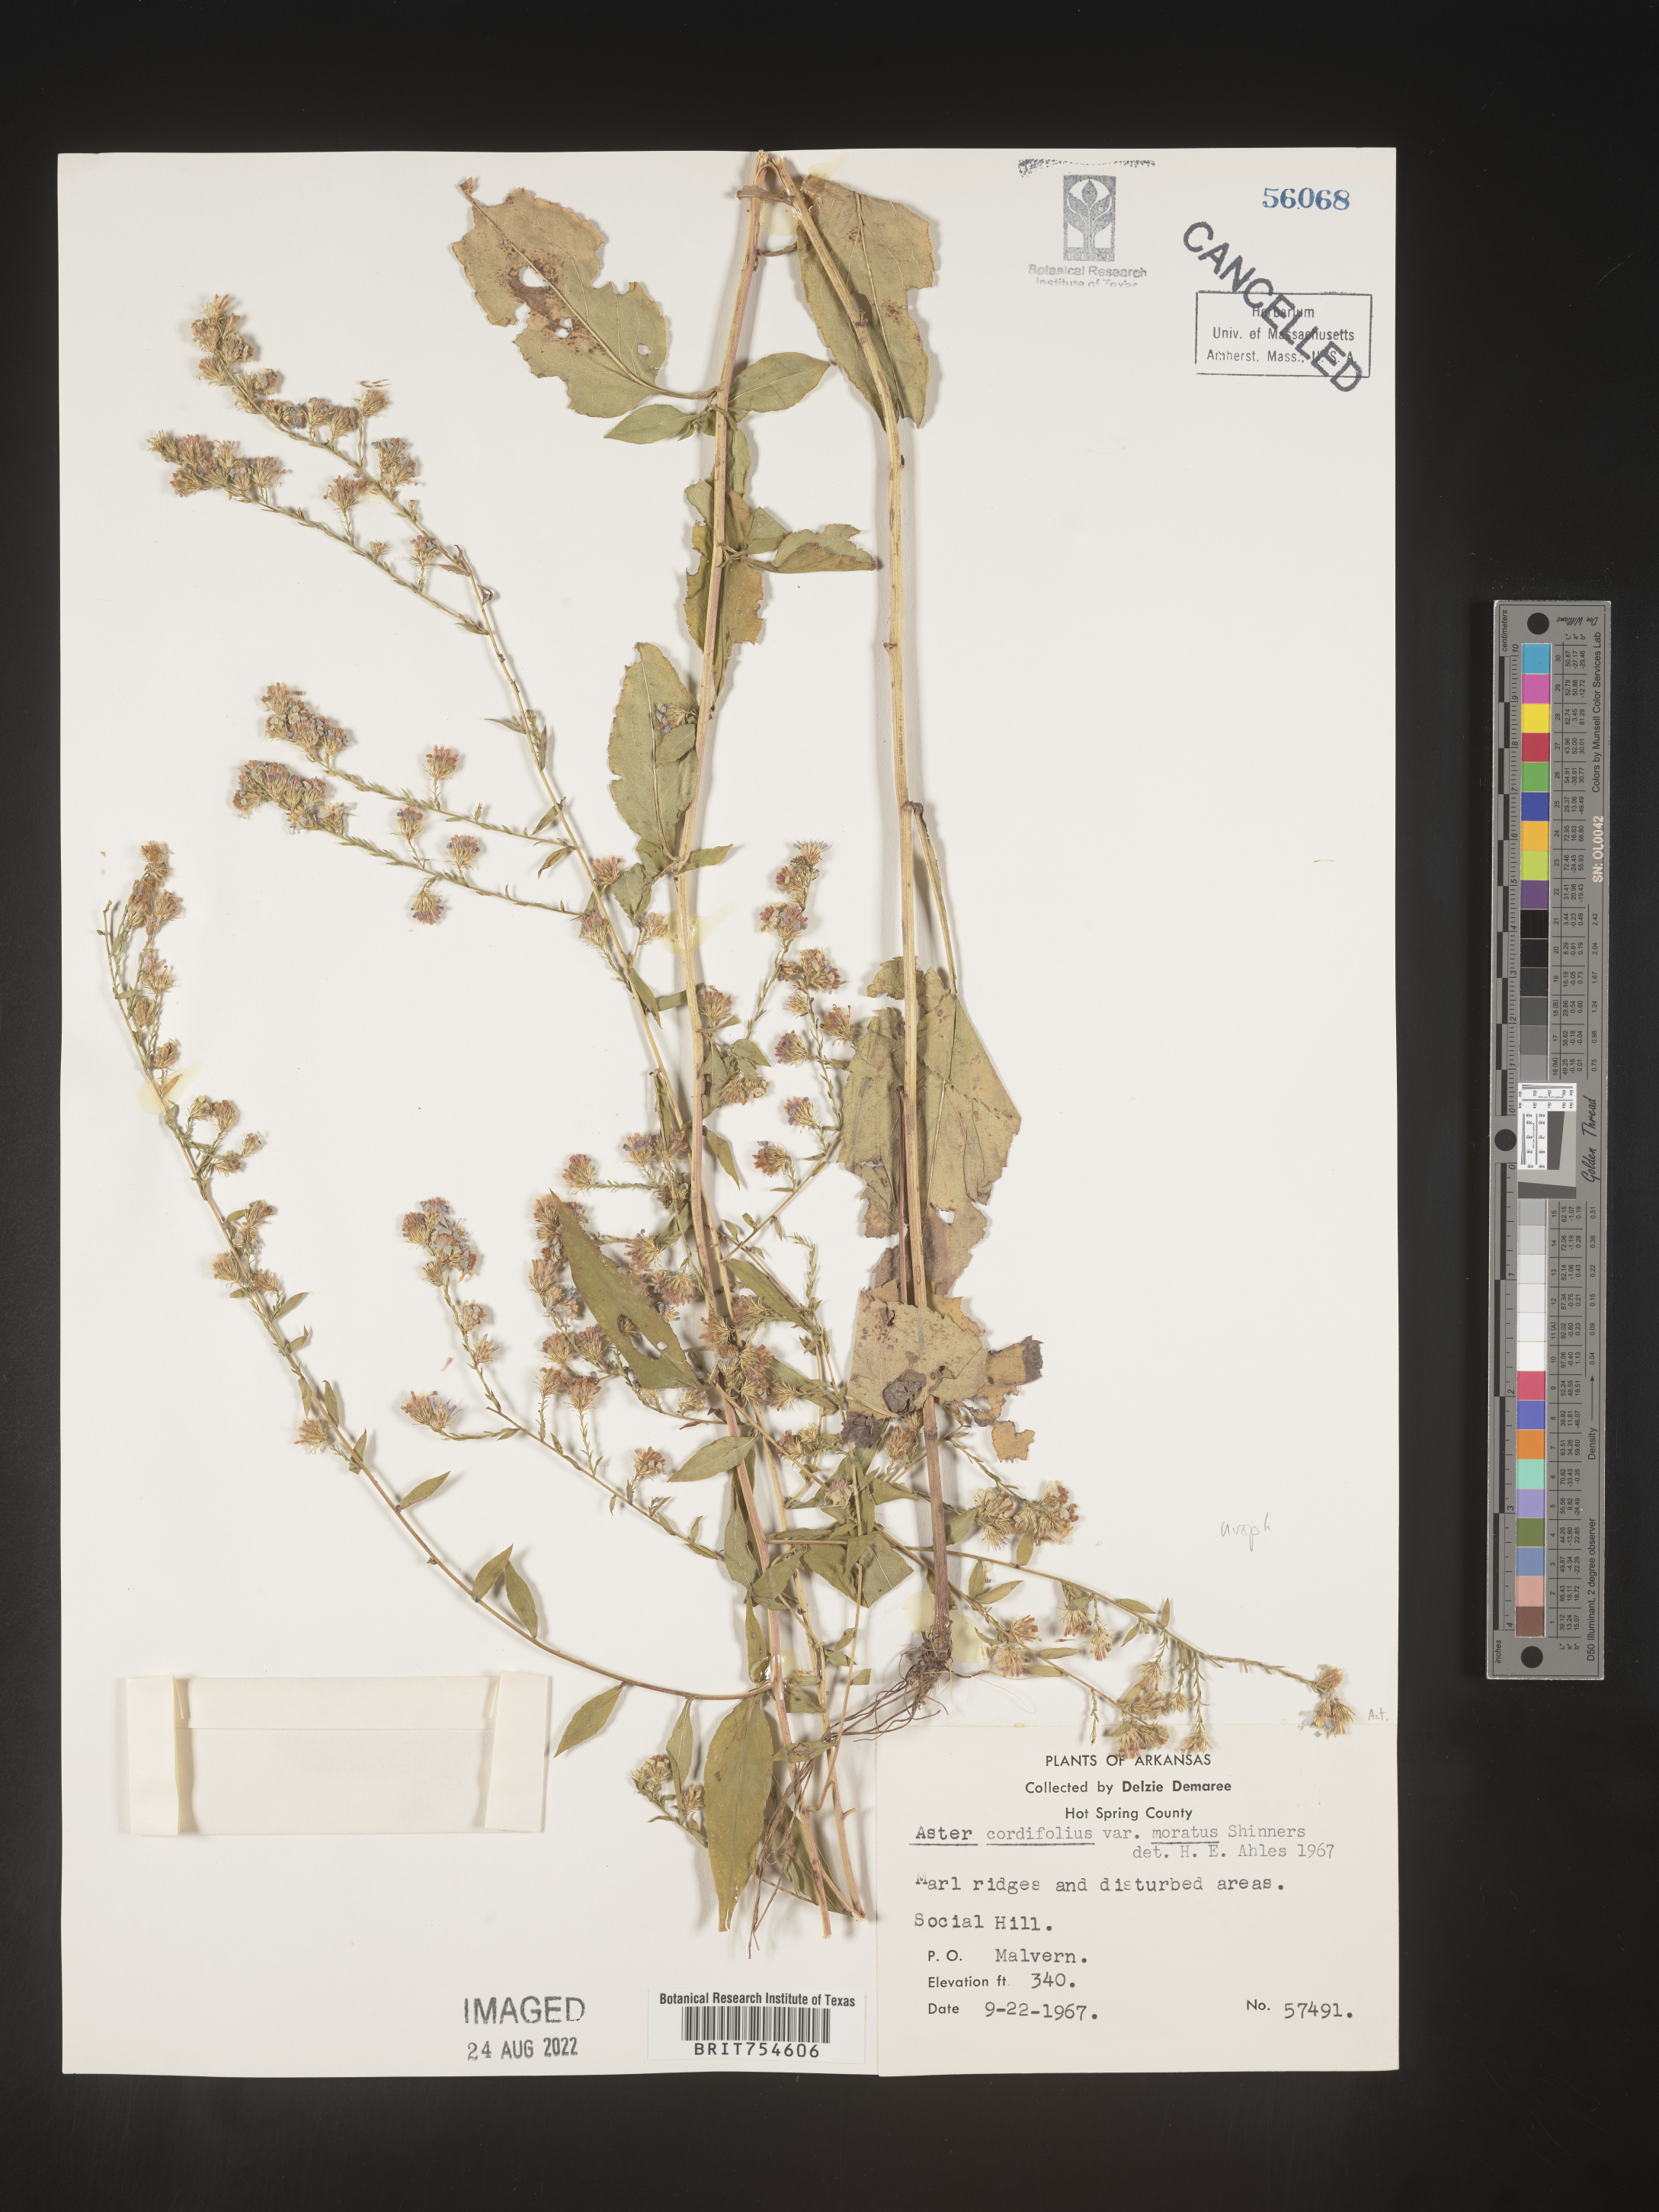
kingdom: Plantae
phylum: Tracheophyta
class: Magnoliopsida
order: Asterales
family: Asteraceae
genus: Symphyotrichum
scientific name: Symphyotrichum urophyllum
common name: Arrow-leaved aster
